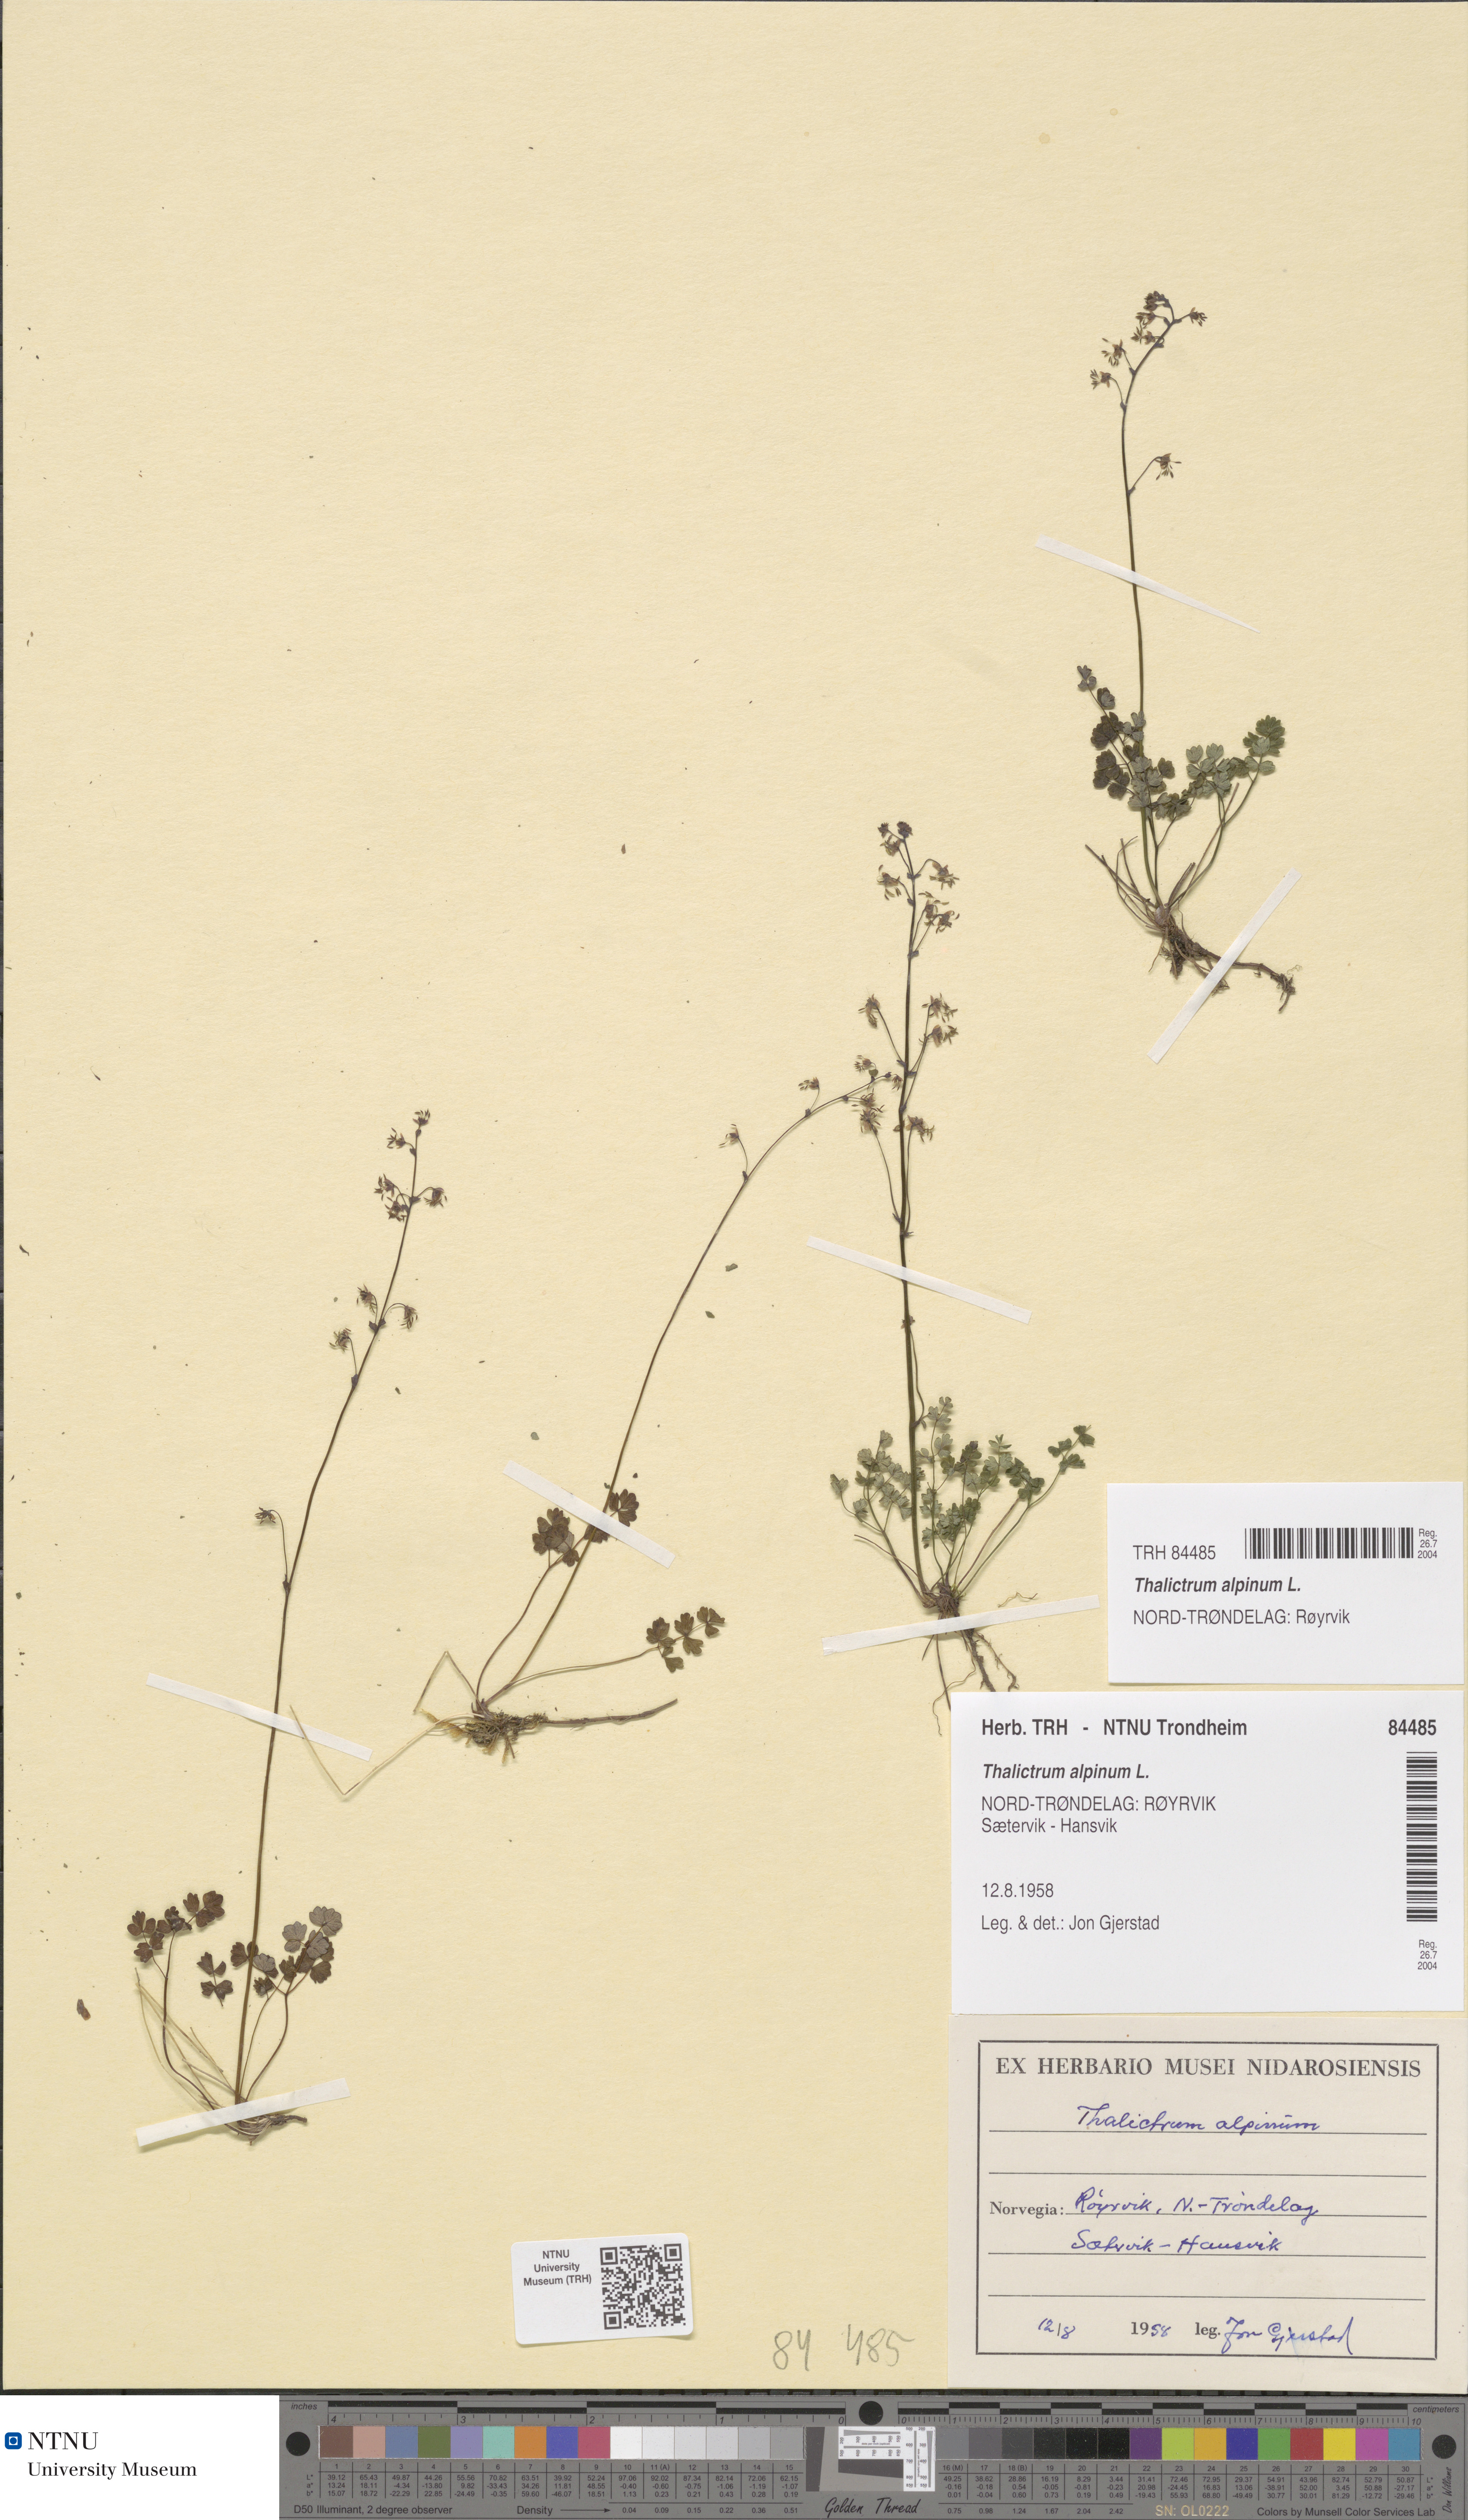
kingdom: Plantae
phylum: Tracheophyta
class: Magnoliopsida
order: Ranunculales
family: Ranunculaceae
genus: Thalictrum
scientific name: Thalictrum alpinum
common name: Alpine meadow-rue
